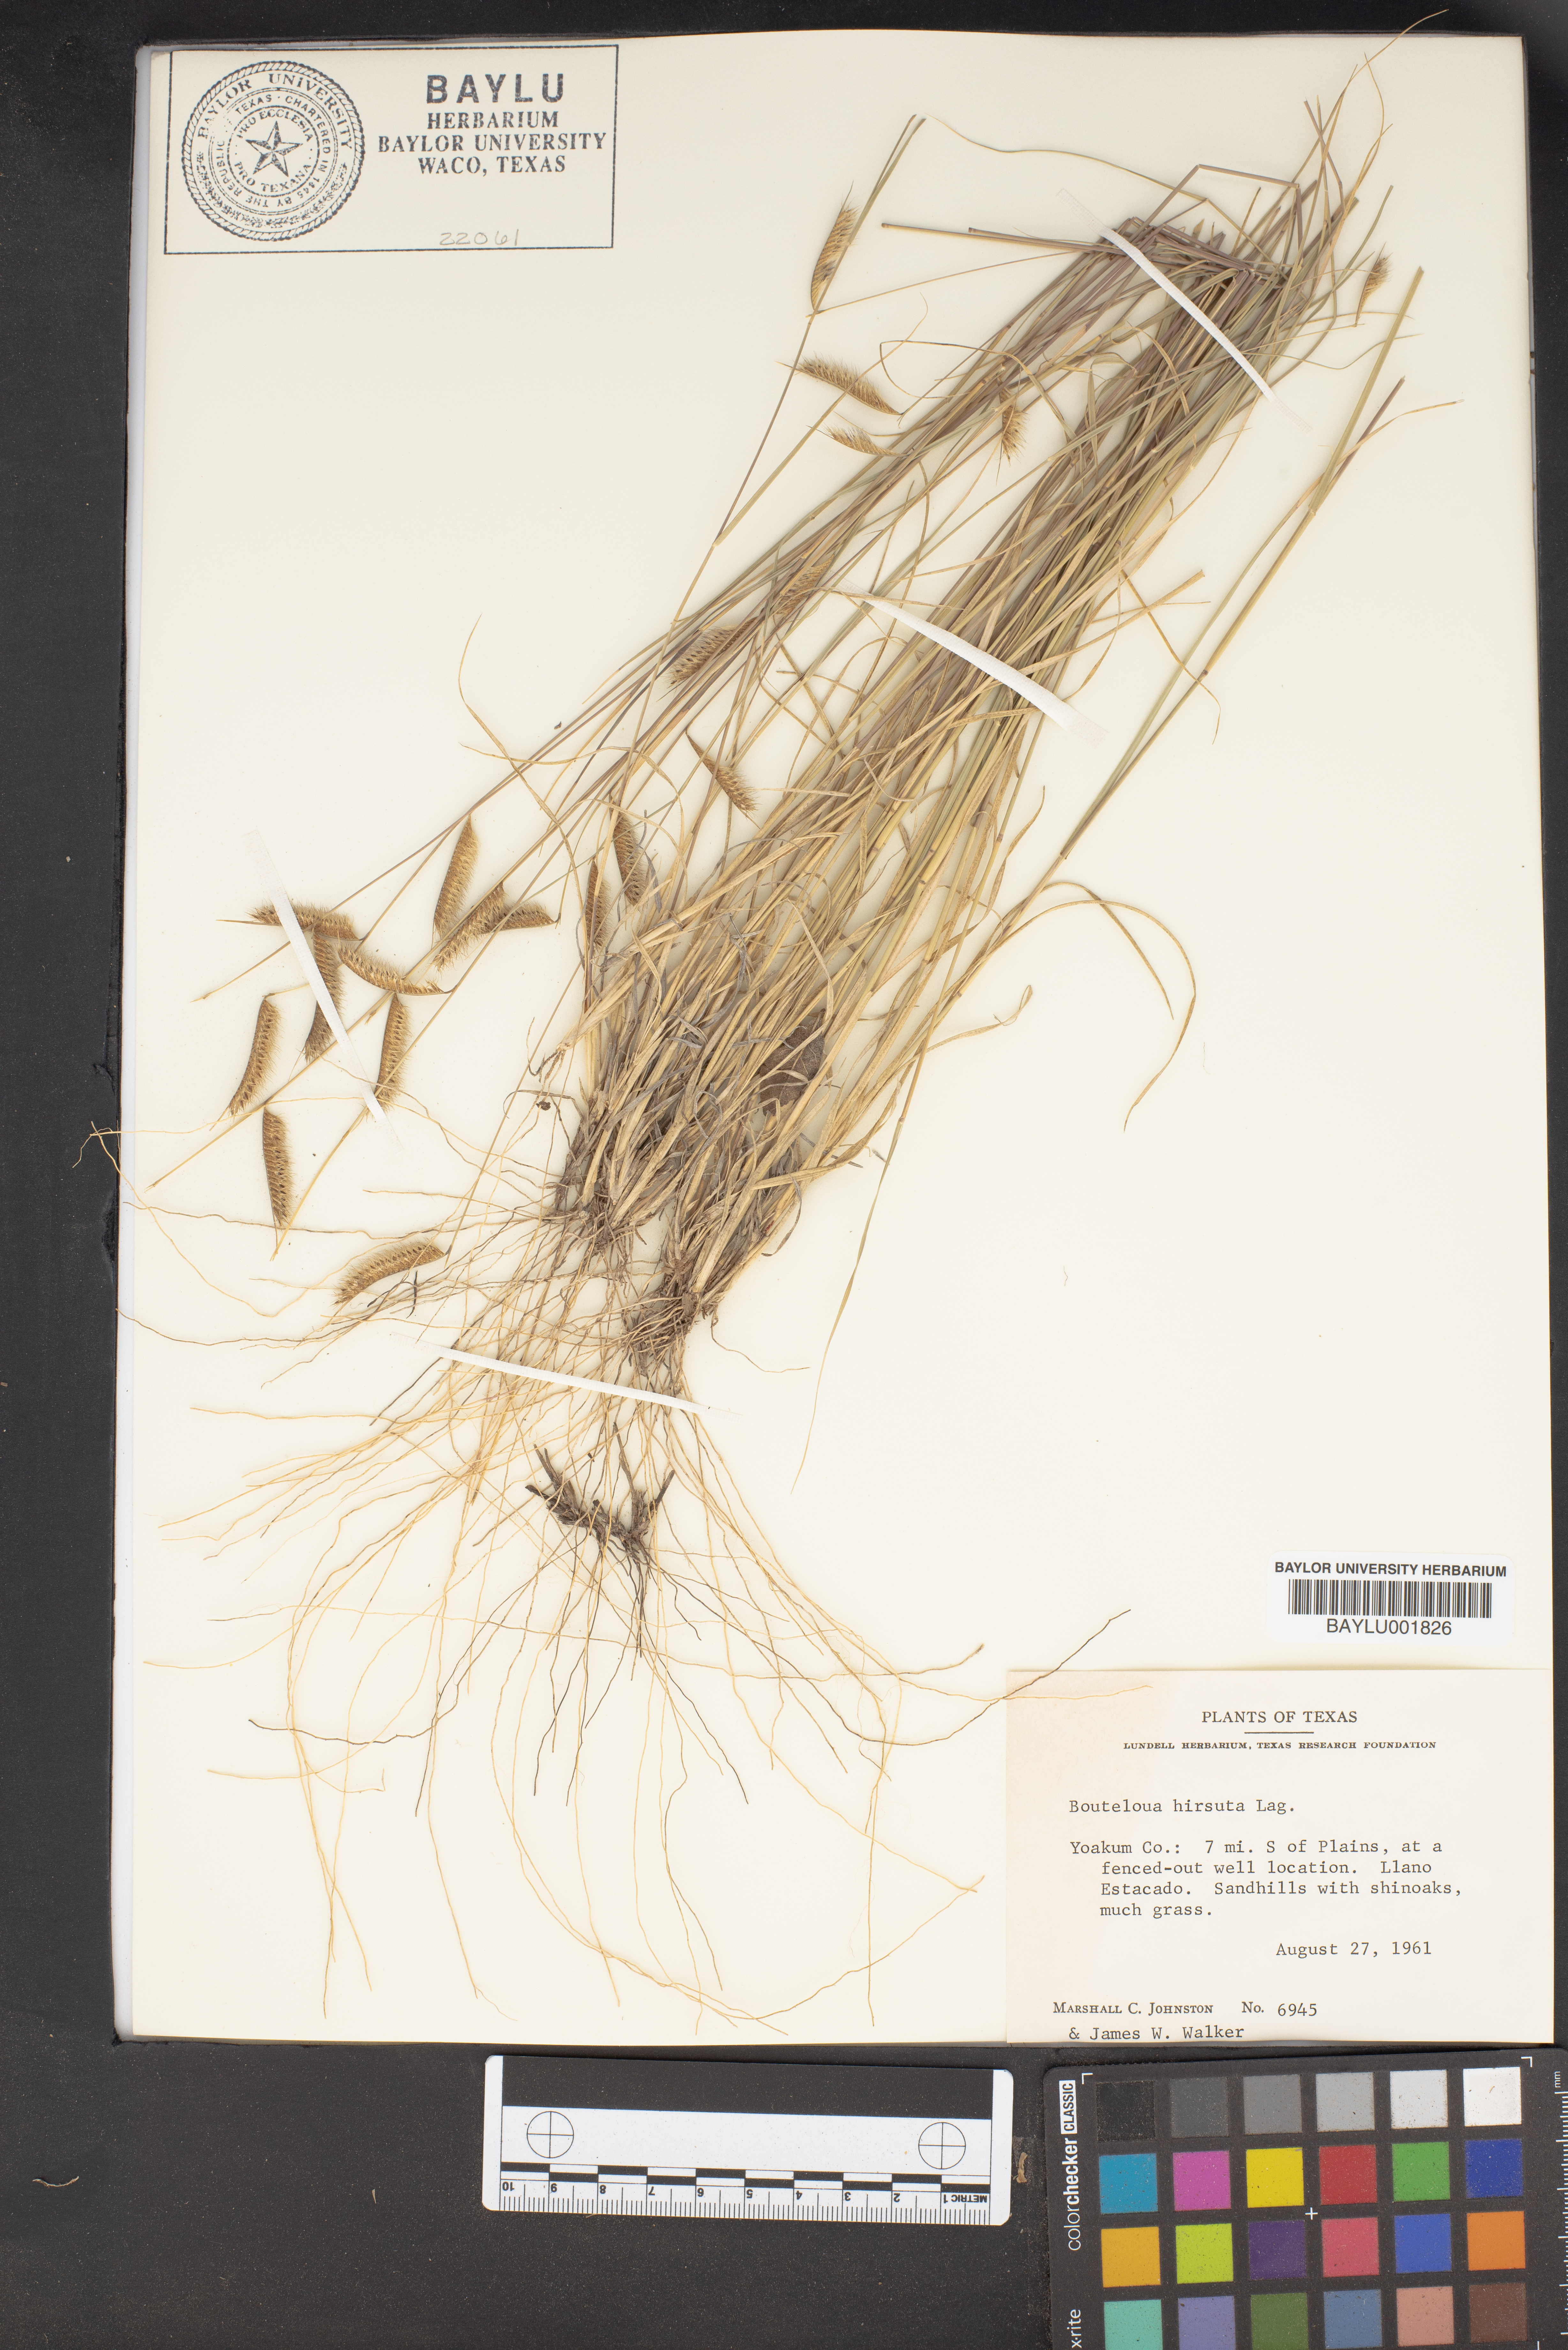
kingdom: Plantae
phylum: Tracheophyta
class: Liliopsida
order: Poales
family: Poaceae
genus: Bouteloua
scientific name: Bouteloua hirsuta
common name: Hairy grama
